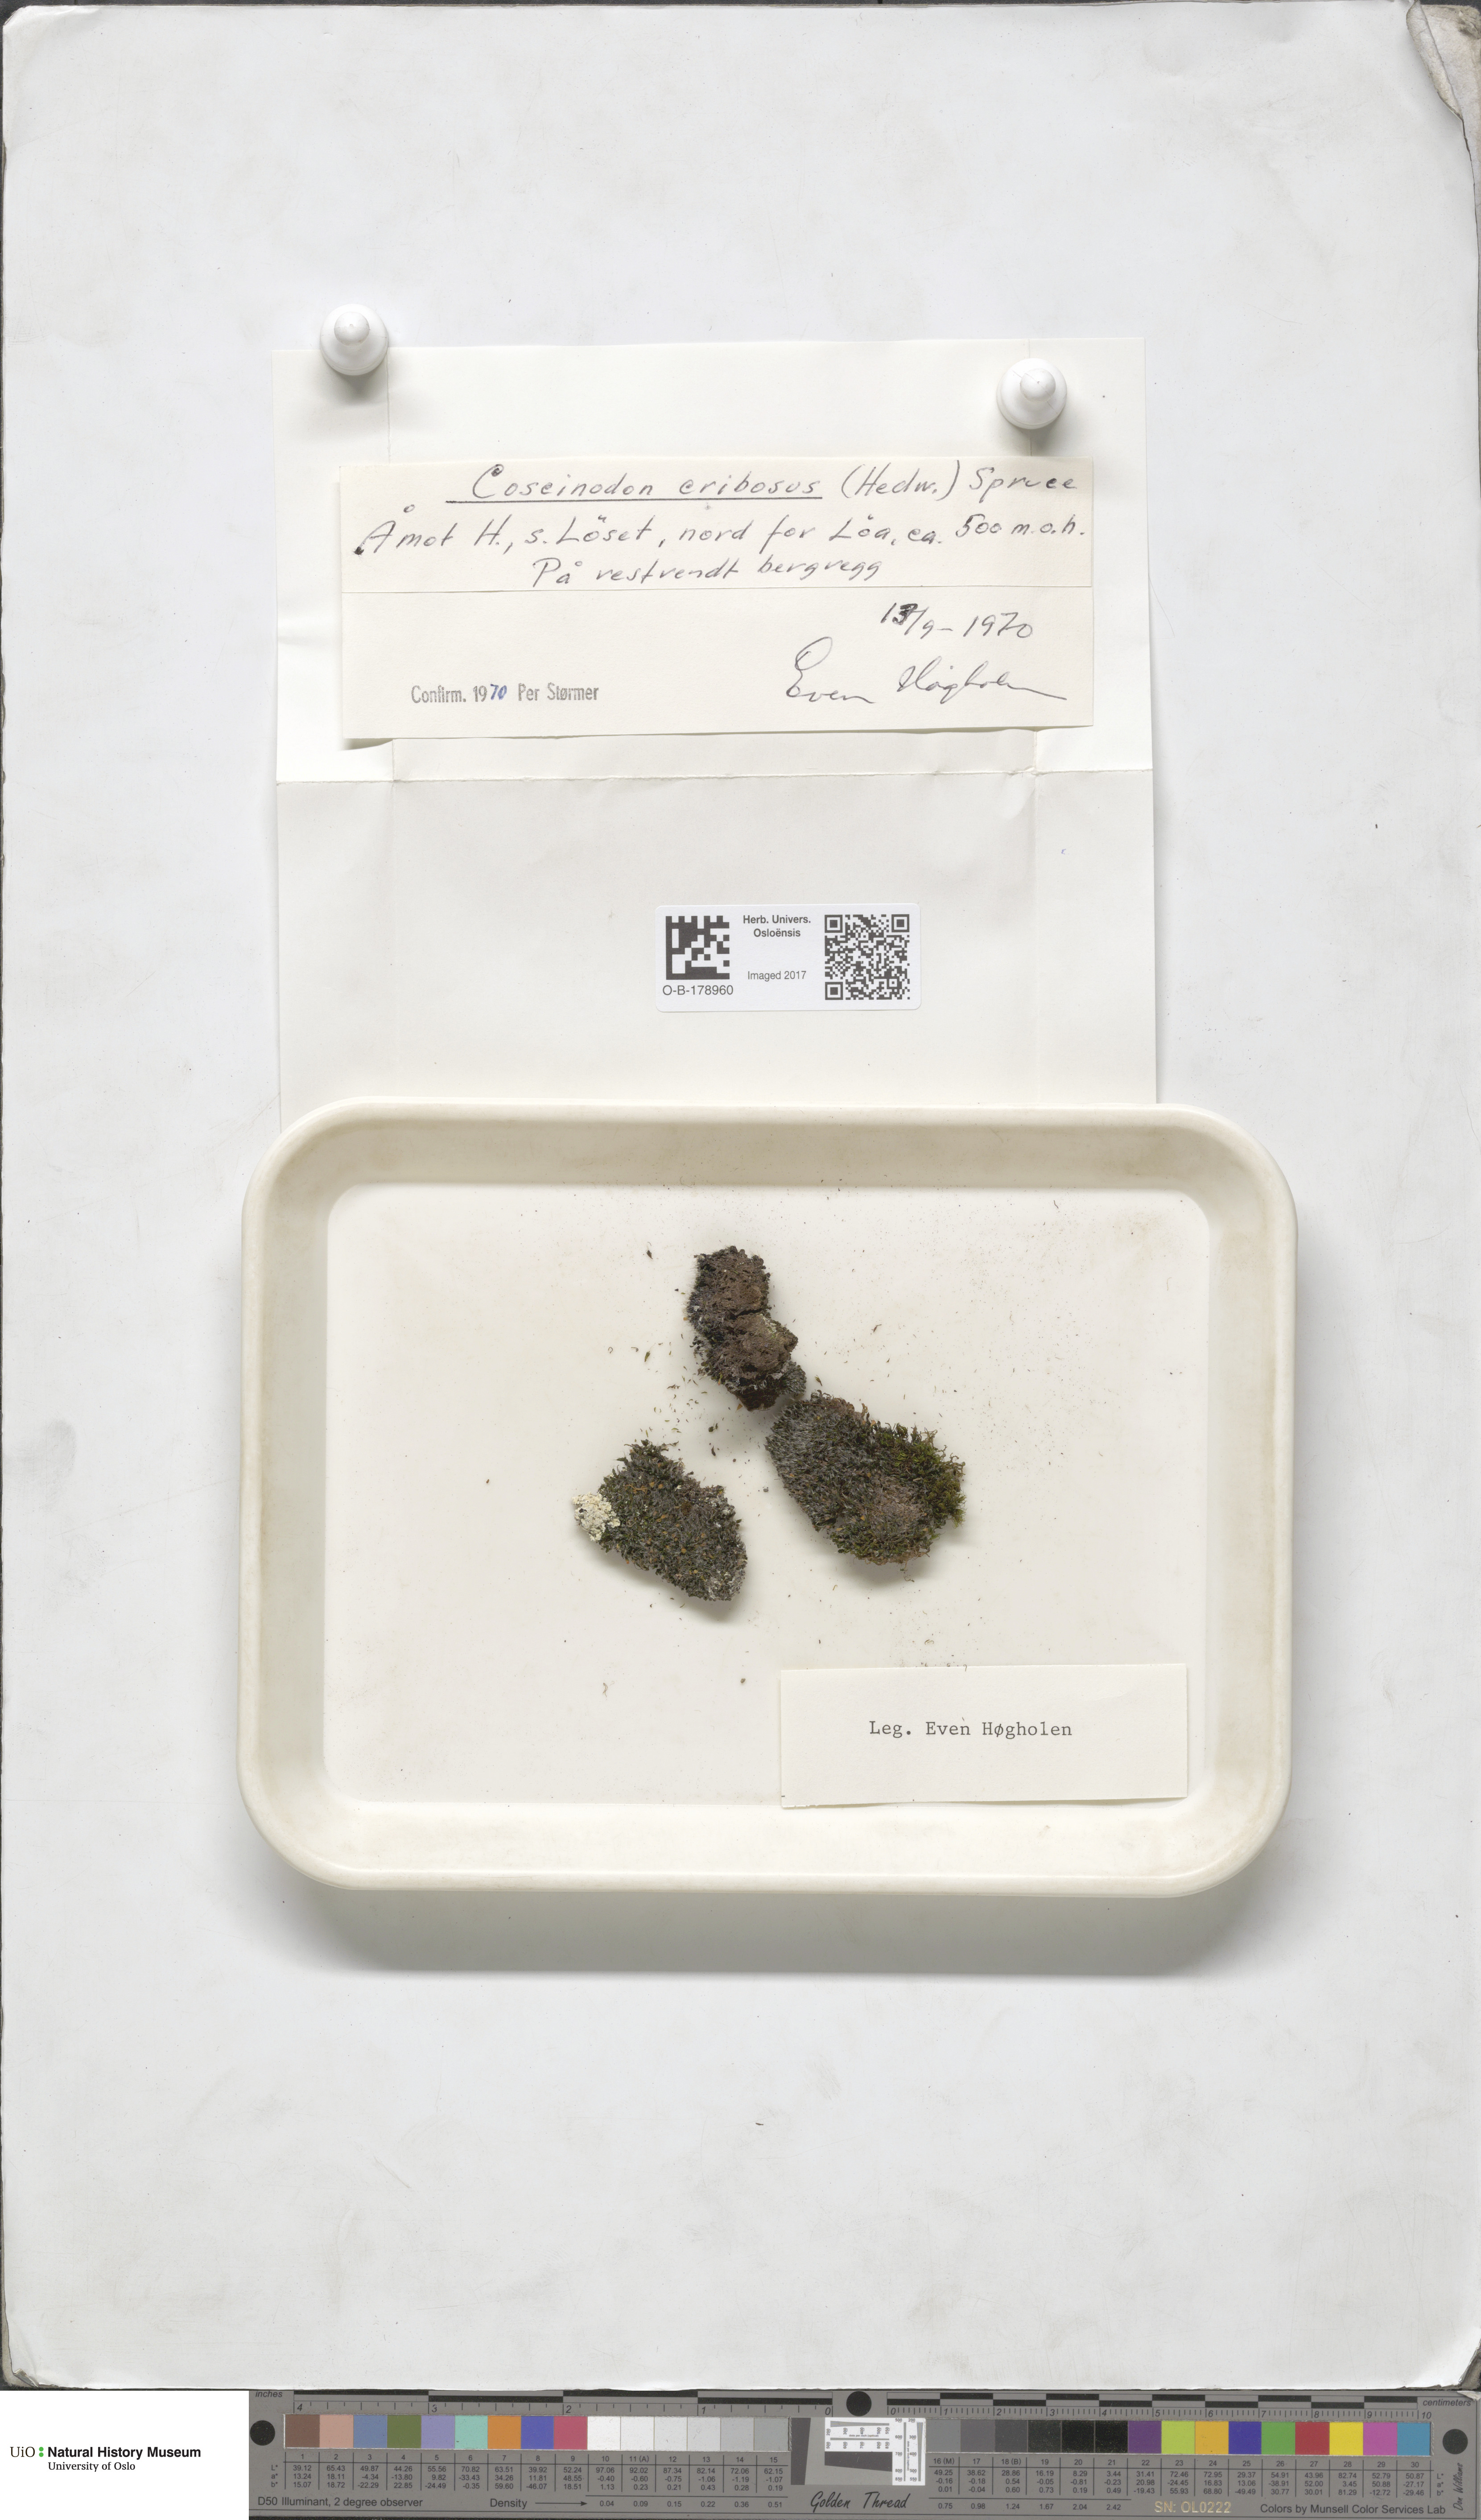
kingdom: Plantae
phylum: Bryophyta
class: Bryopsida
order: Bartramiales
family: Bartramiaceae
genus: Conostomum
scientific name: Conostomum tetragonum
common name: Helmet moss
